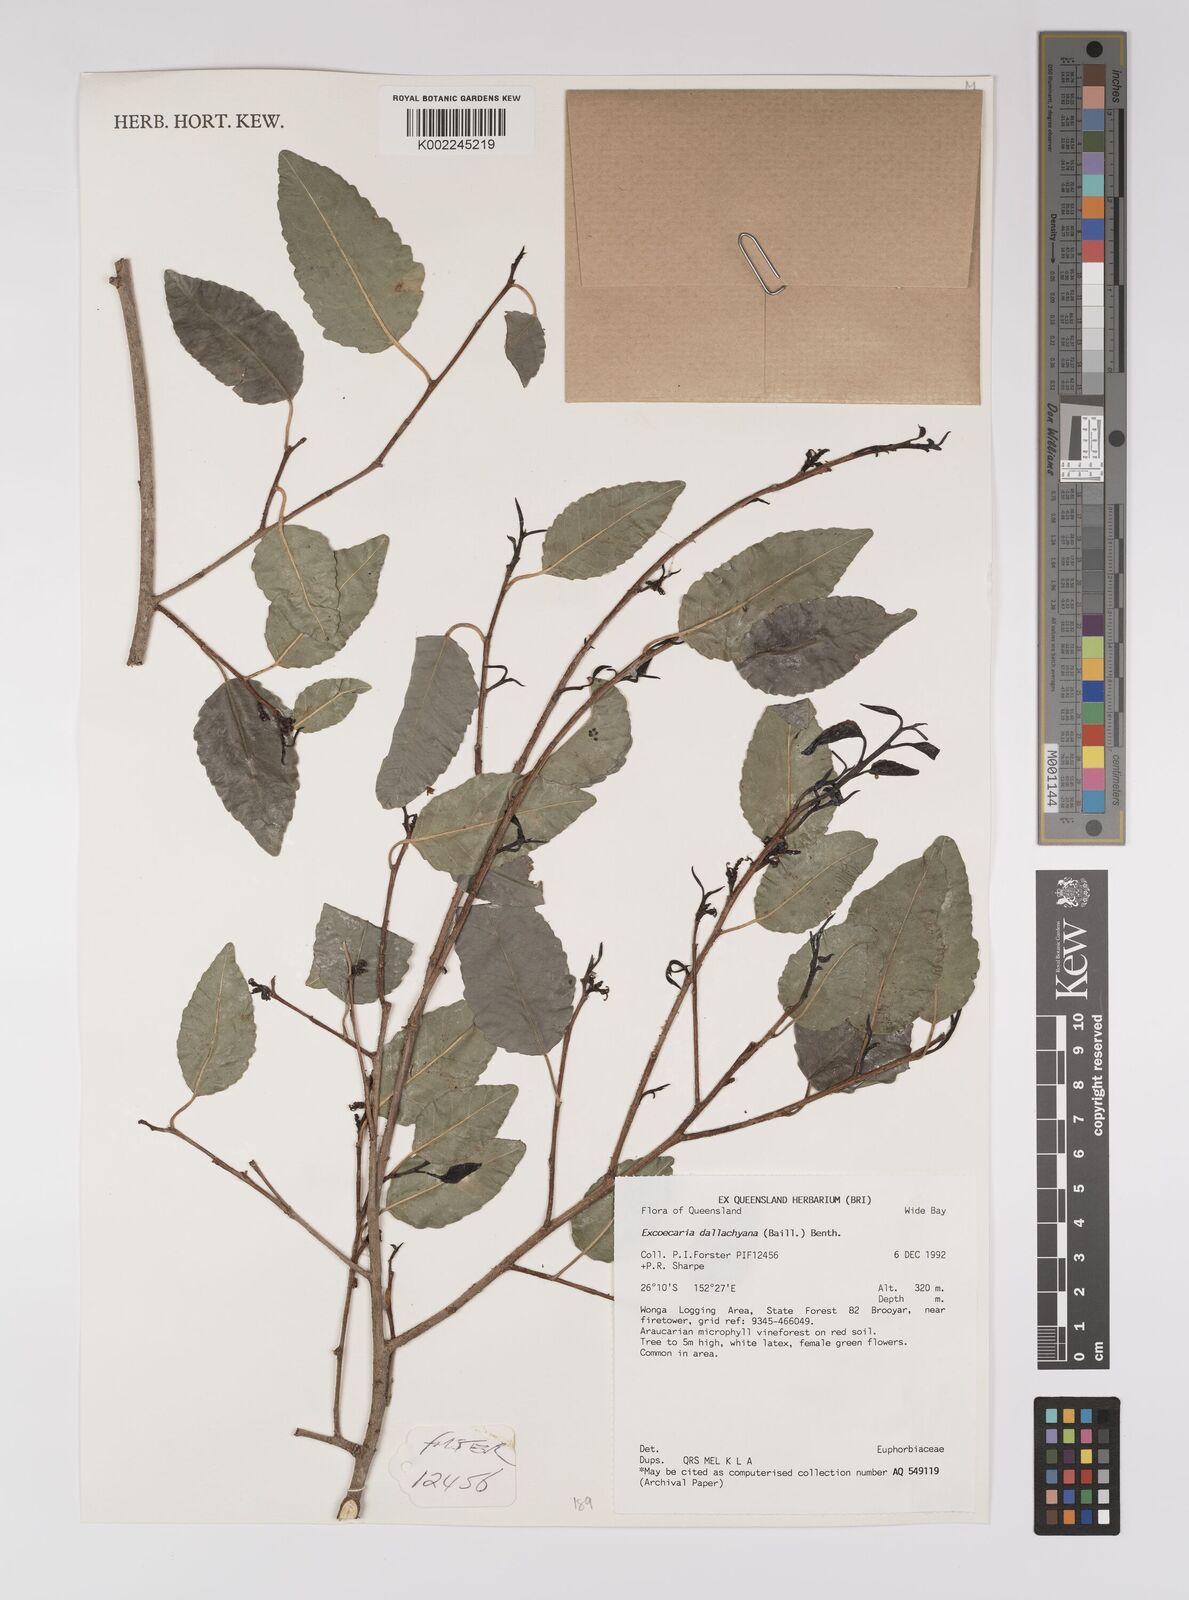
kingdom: Plantae
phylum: Tracheophyta
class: Magnoliopsida
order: Malpighiales
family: Euphorbiaceae
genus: Excoecaria
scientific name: Excoecaria dallachyana
